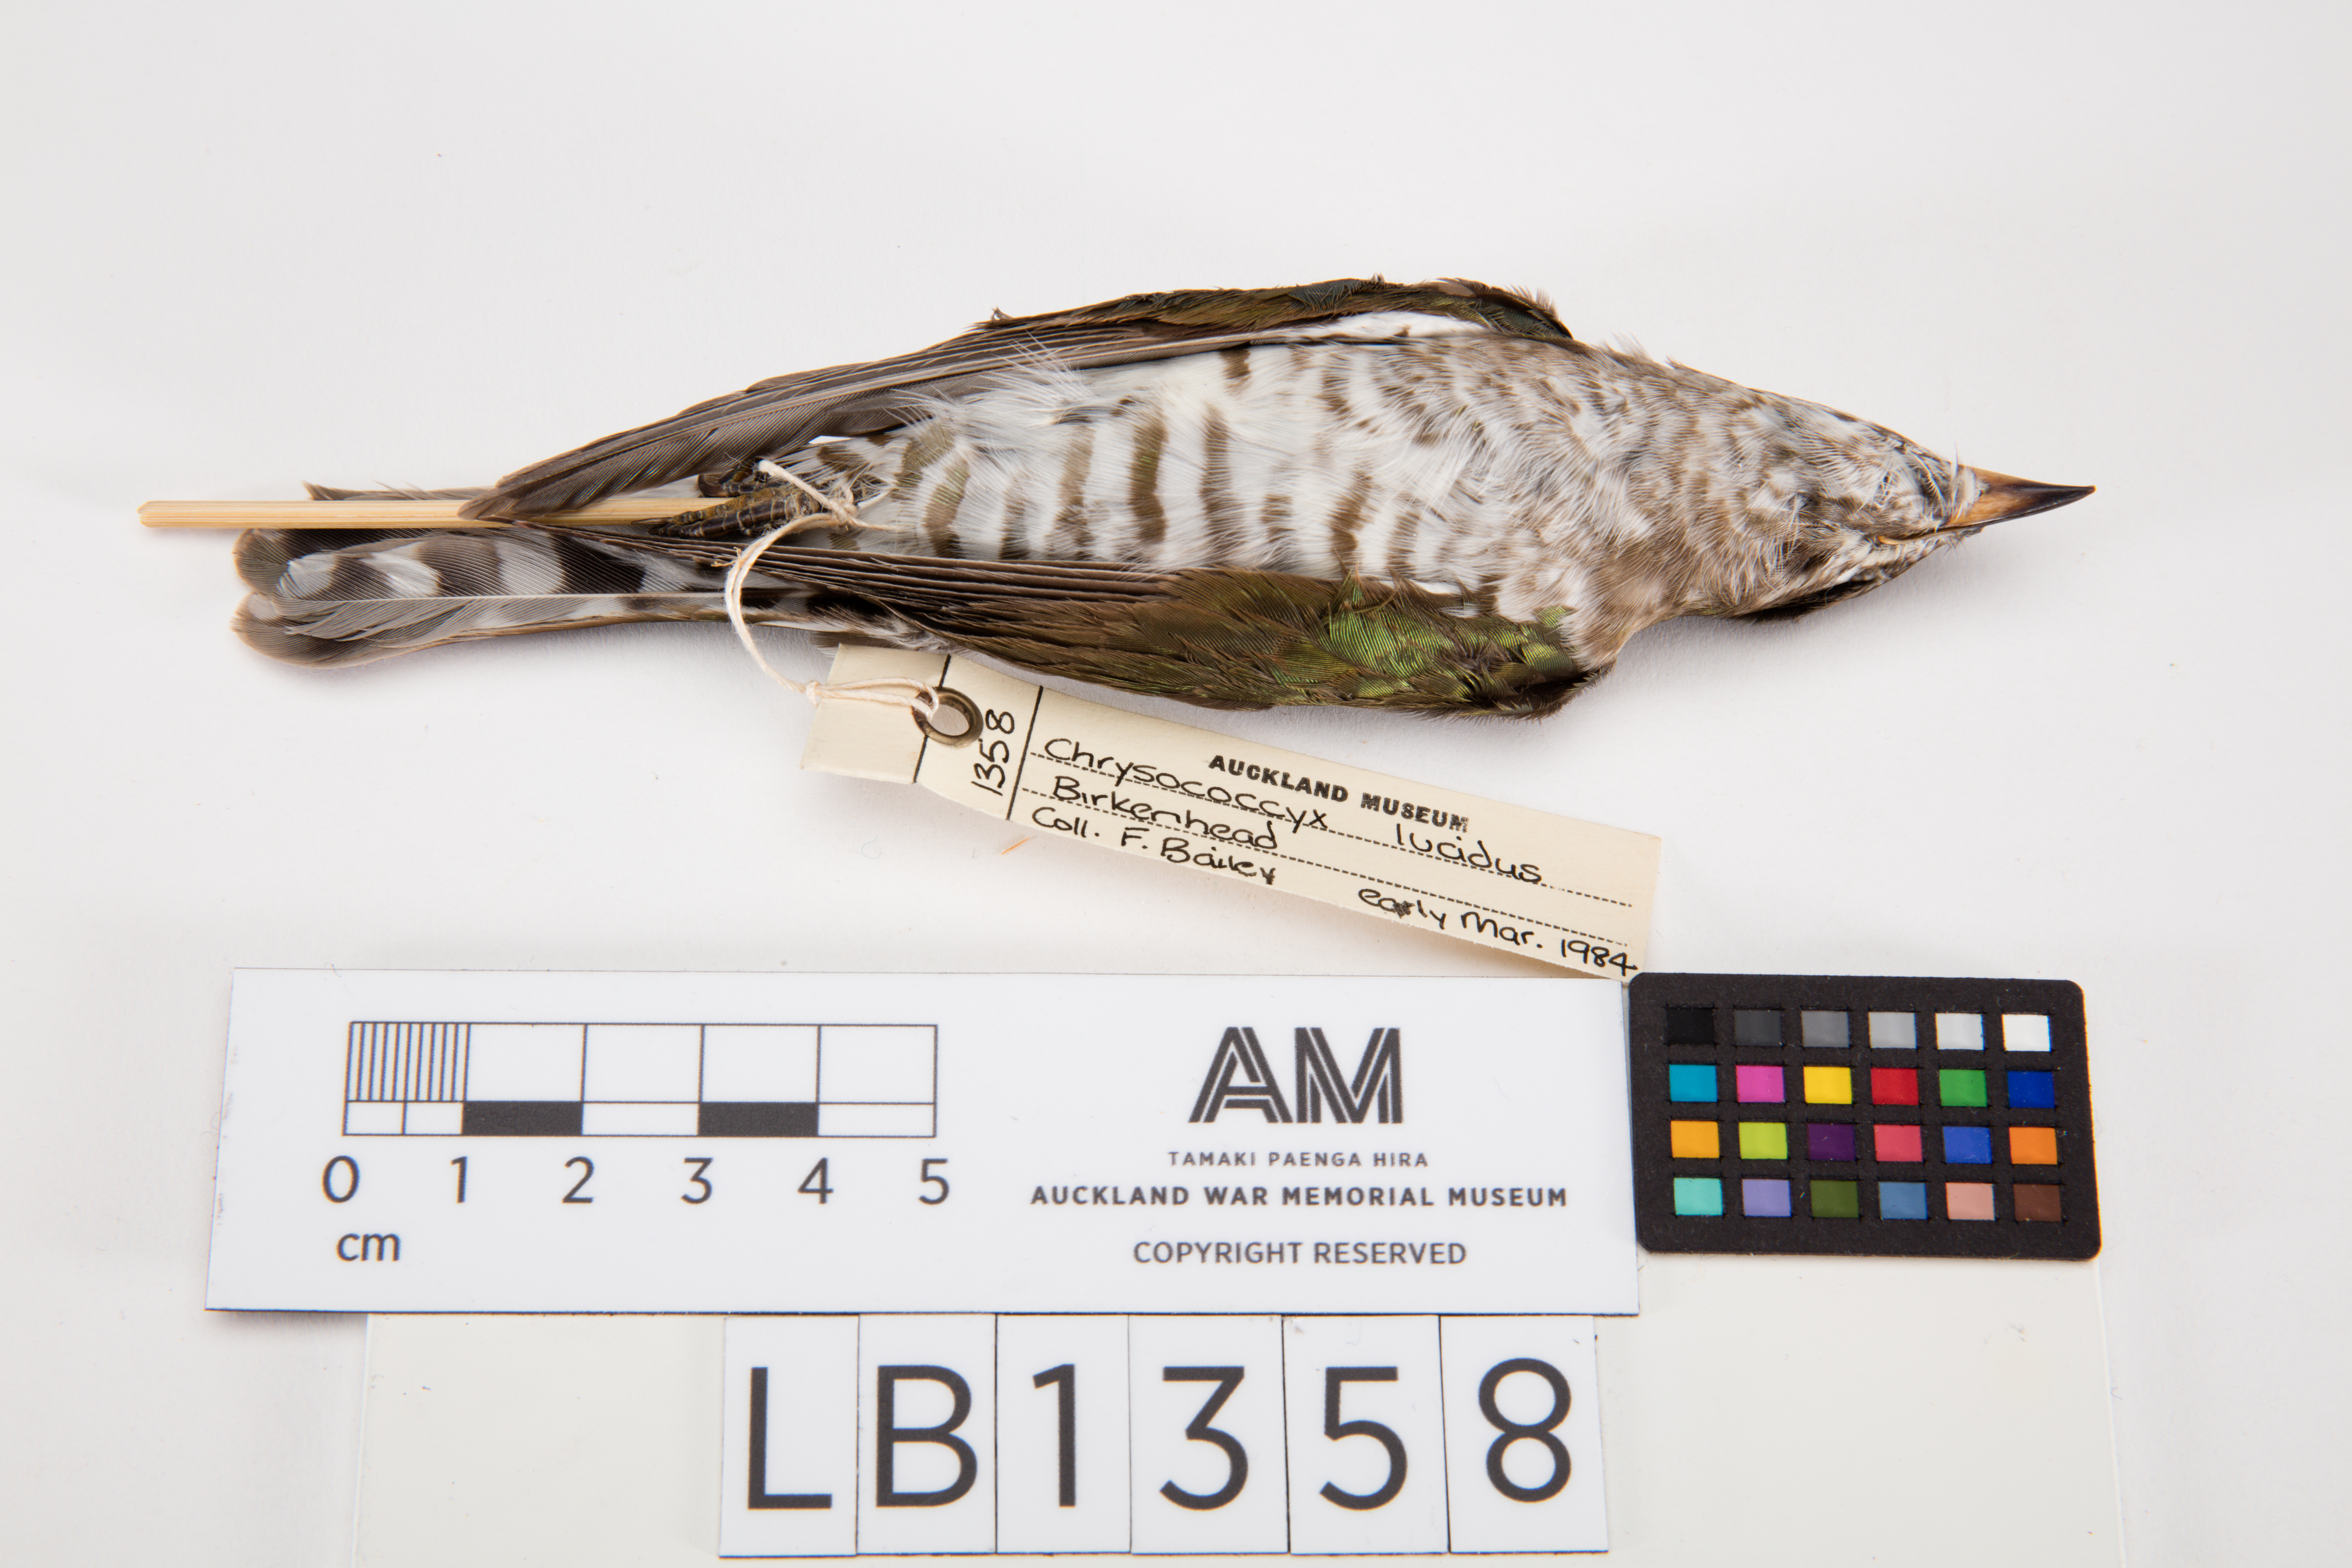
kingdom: Animalia
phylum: Chordata
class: Aves
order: Cuculiformes
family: Cuculidae
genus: Chrysococcyx
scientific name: Chrysococcyx lucidus
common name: Shining bronze cuckoo
